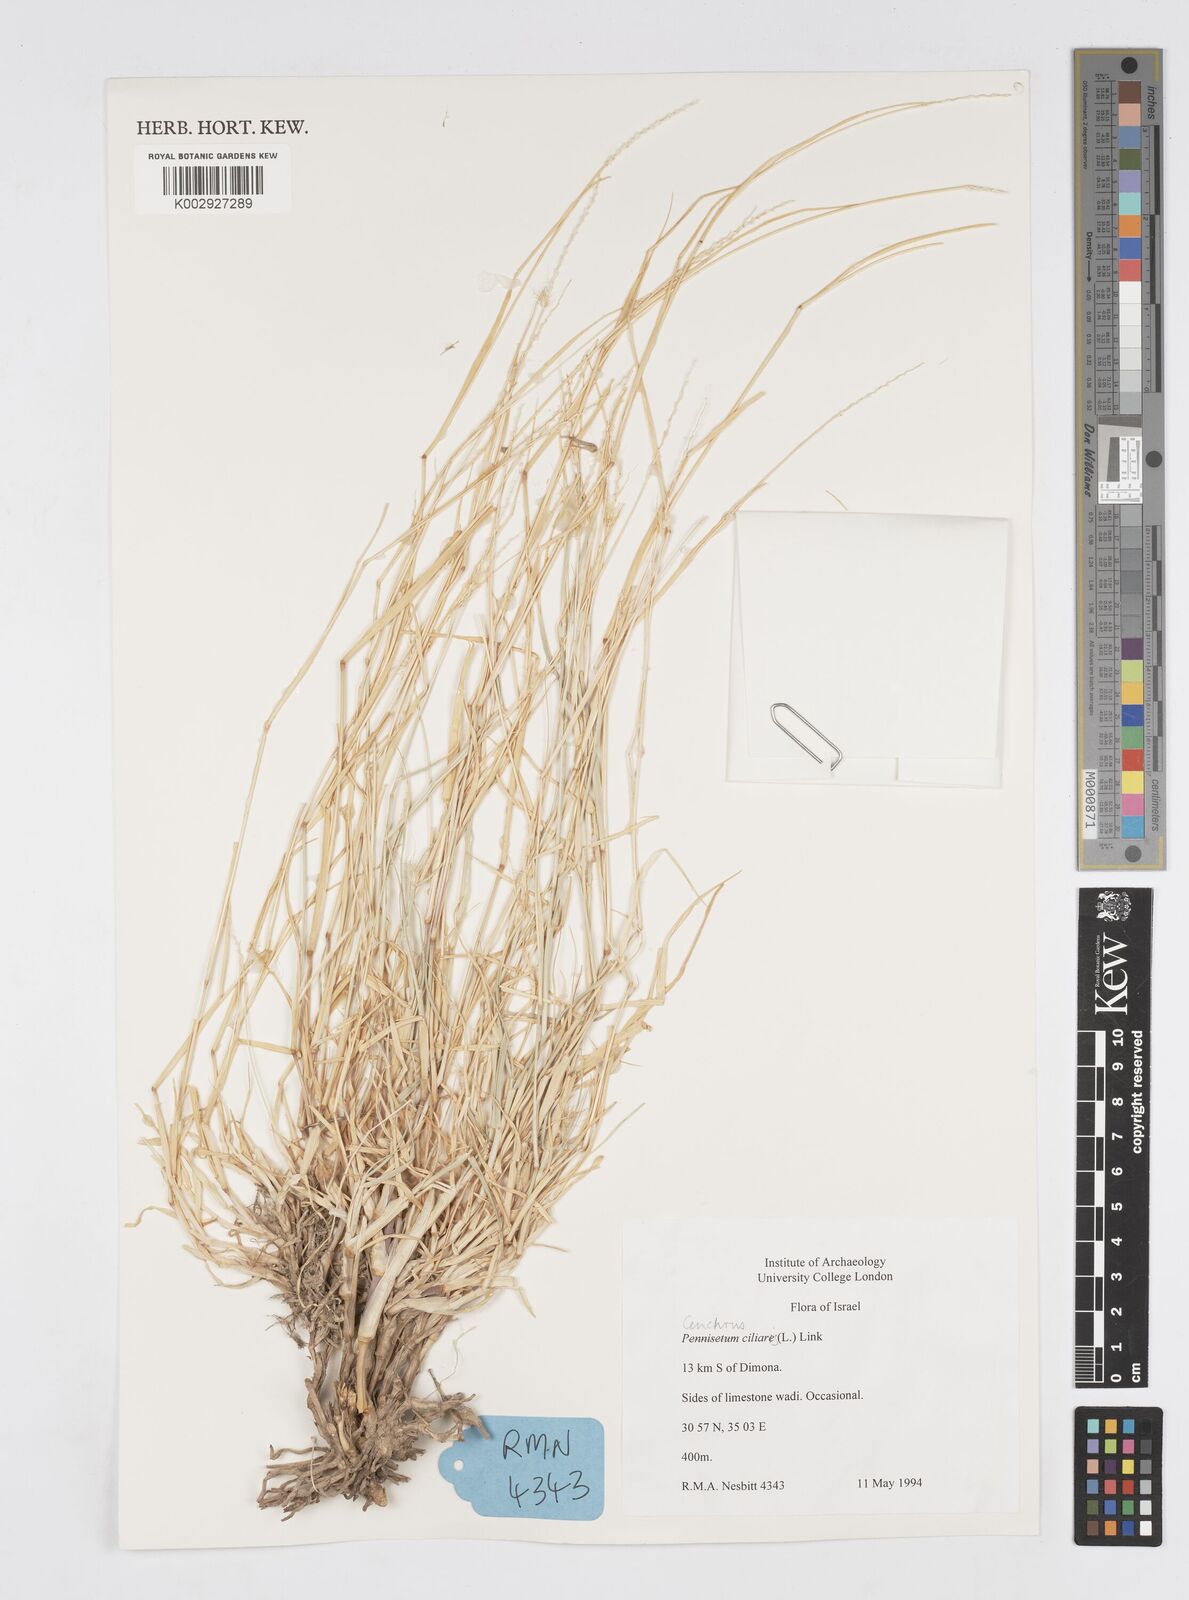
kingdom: Plantae
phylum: Tracheophyta
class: Liliopsida
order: Poales
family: Poaceae
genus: Cenchrus
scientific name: Cenchrus ciliaris
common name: Buffelgrass
